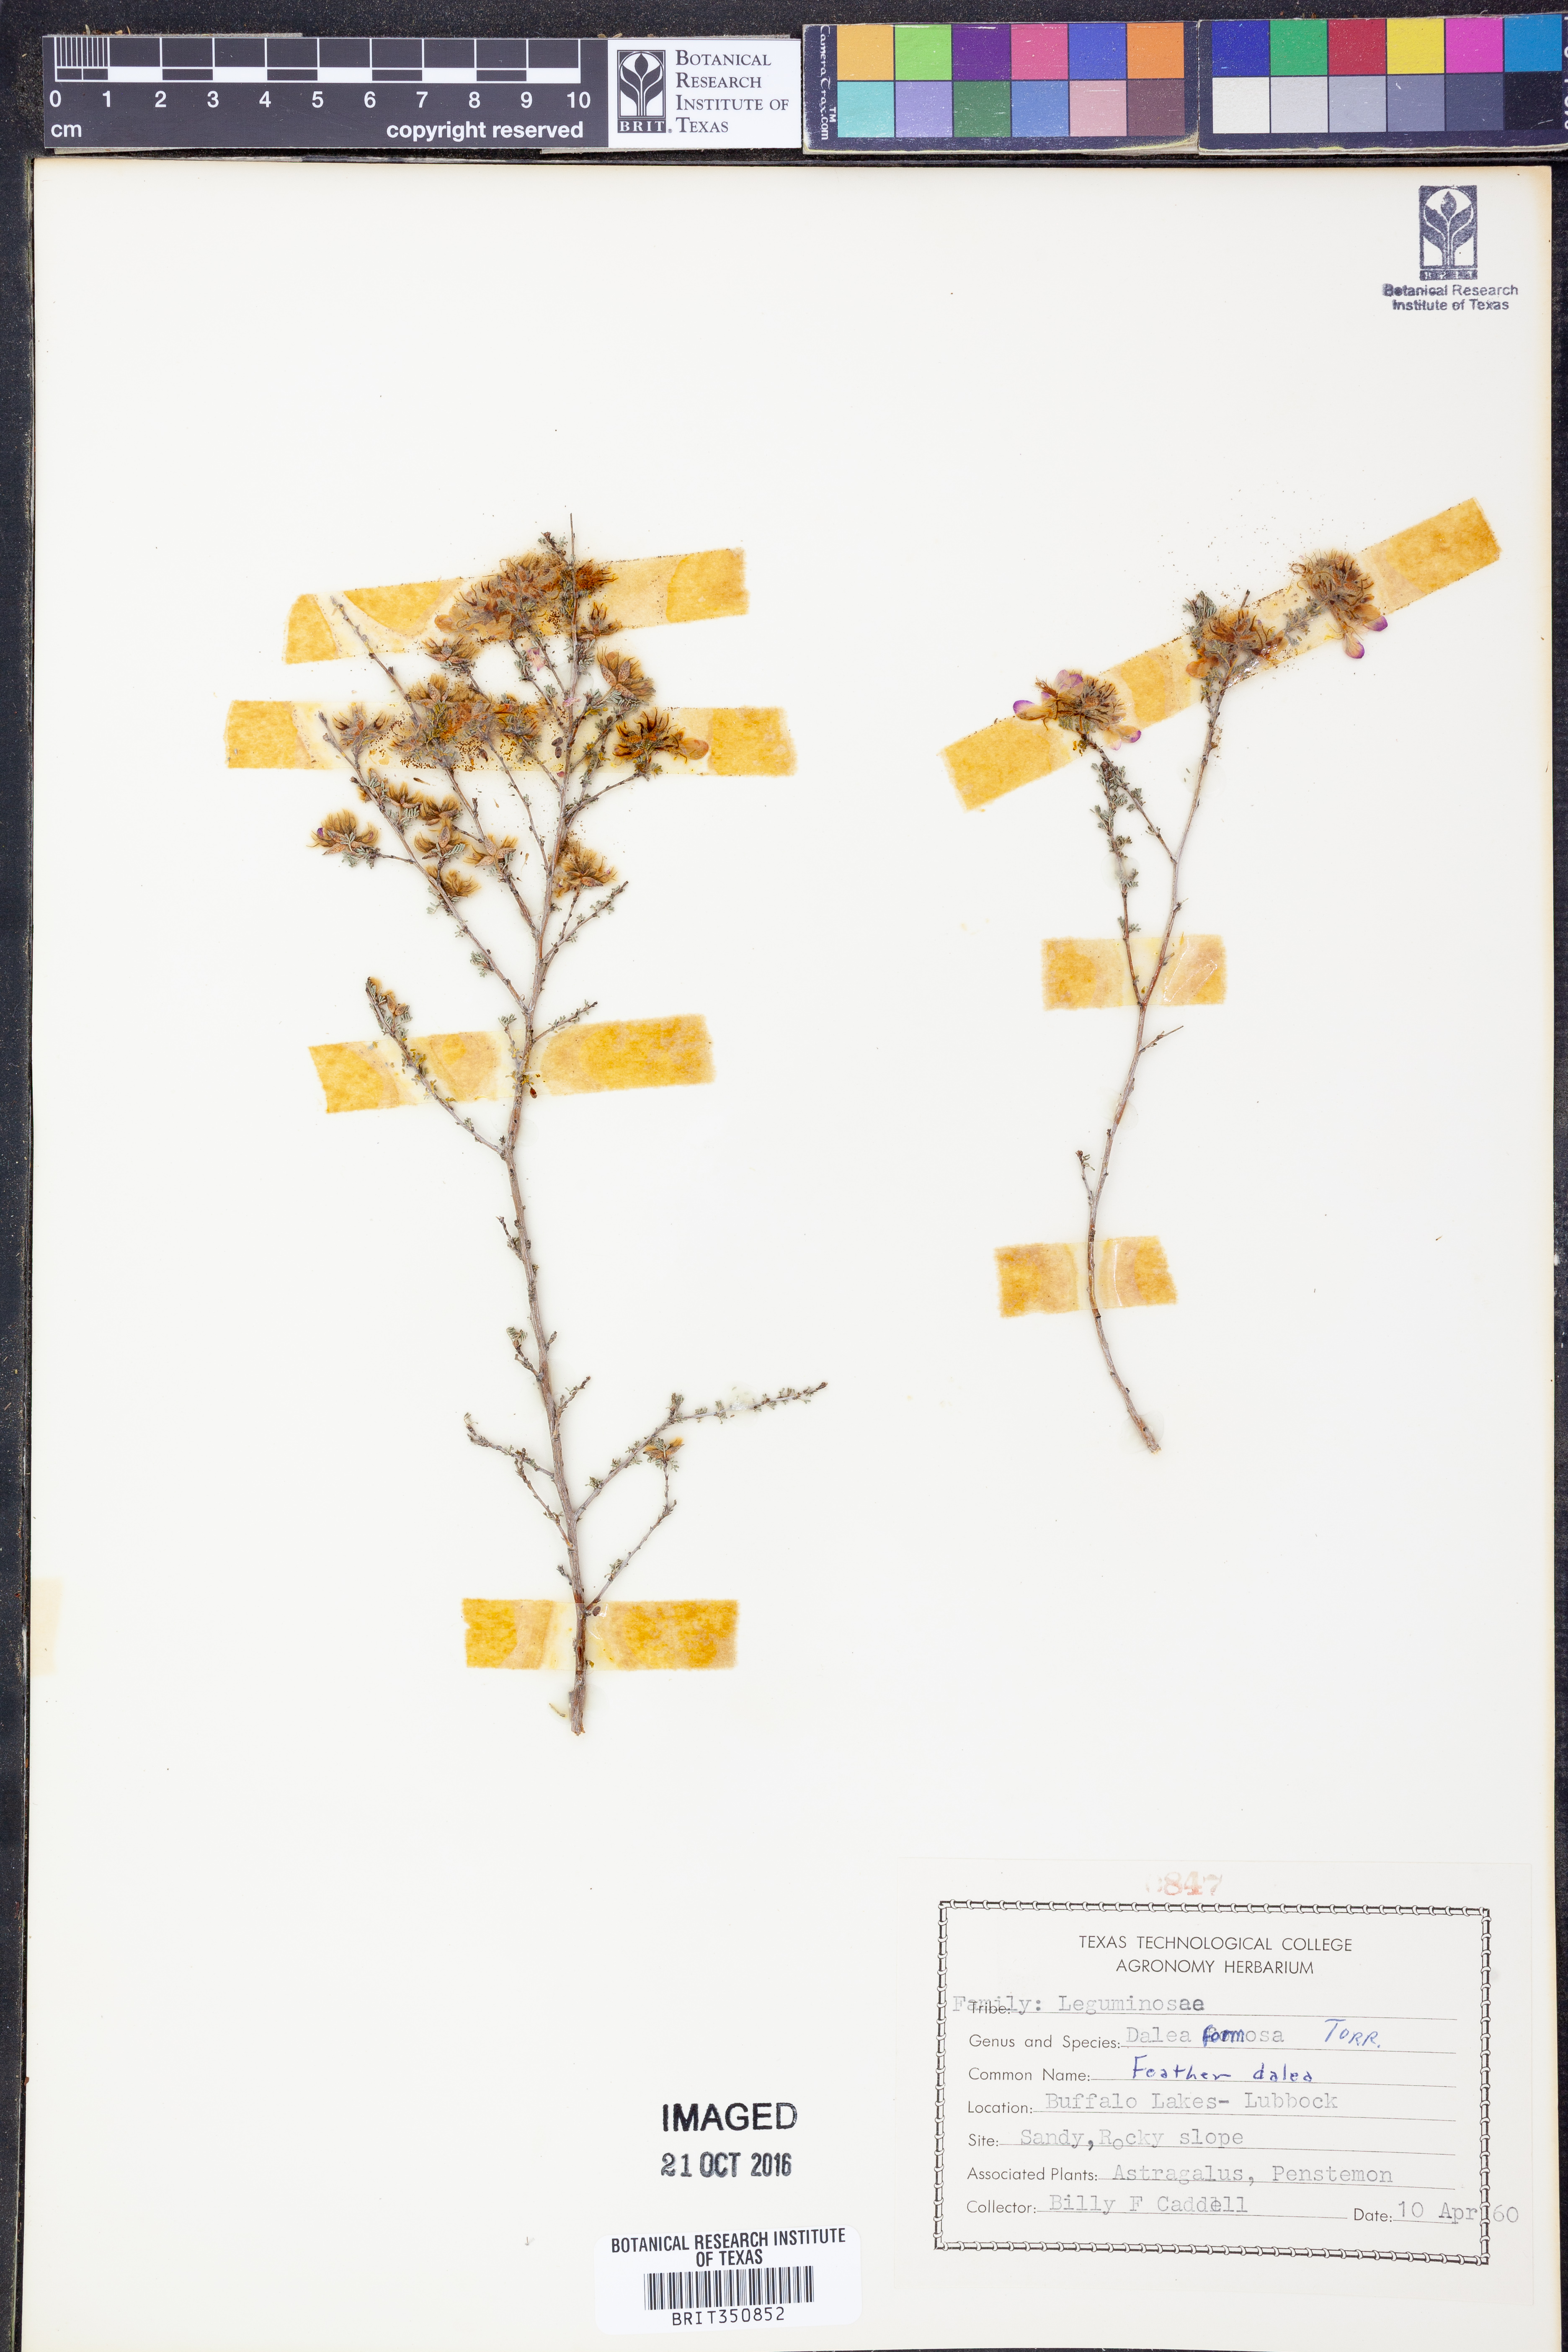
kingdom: Plantae
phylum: Tracheophyta
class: Magnoliopsida
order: Fabales
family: Fabaceae
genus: Dalea
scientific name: Dalea formosa
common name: Feather-plume dalea
